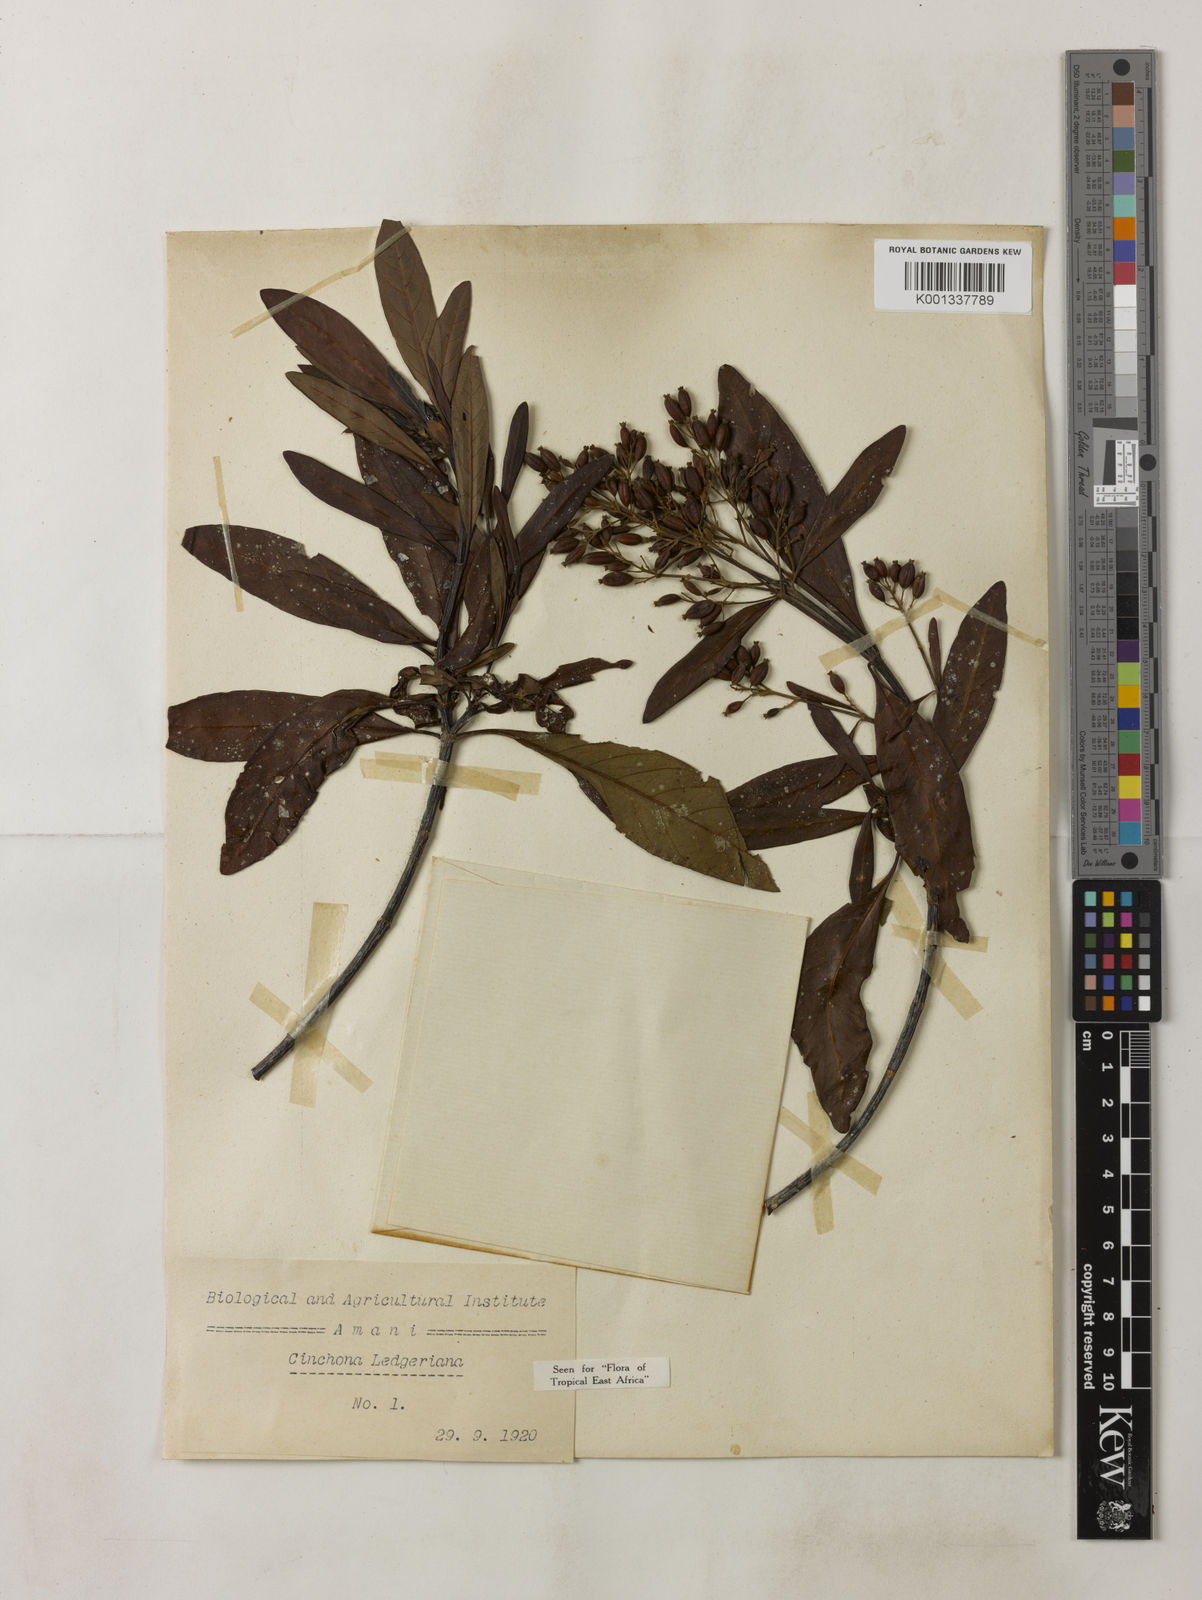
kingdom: Plantae
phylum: Tracheophyta
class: Magnoliopsida
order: Gentianales
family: Rubiaceae
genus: Cinchona
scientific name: Cinchona calisaya
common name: Ledgerbark
